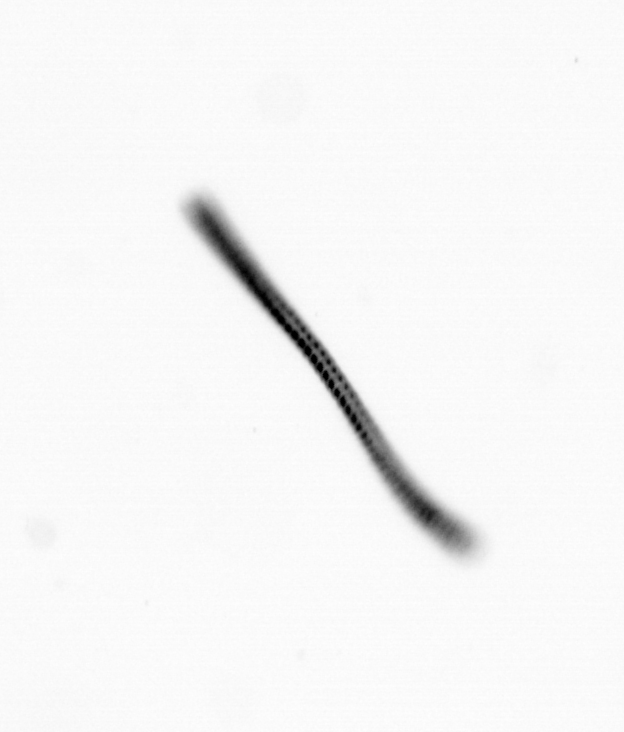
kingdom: Chromista
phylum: Ochrophyta
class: Bacillariophyceae
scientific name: Bacillariophyceae
